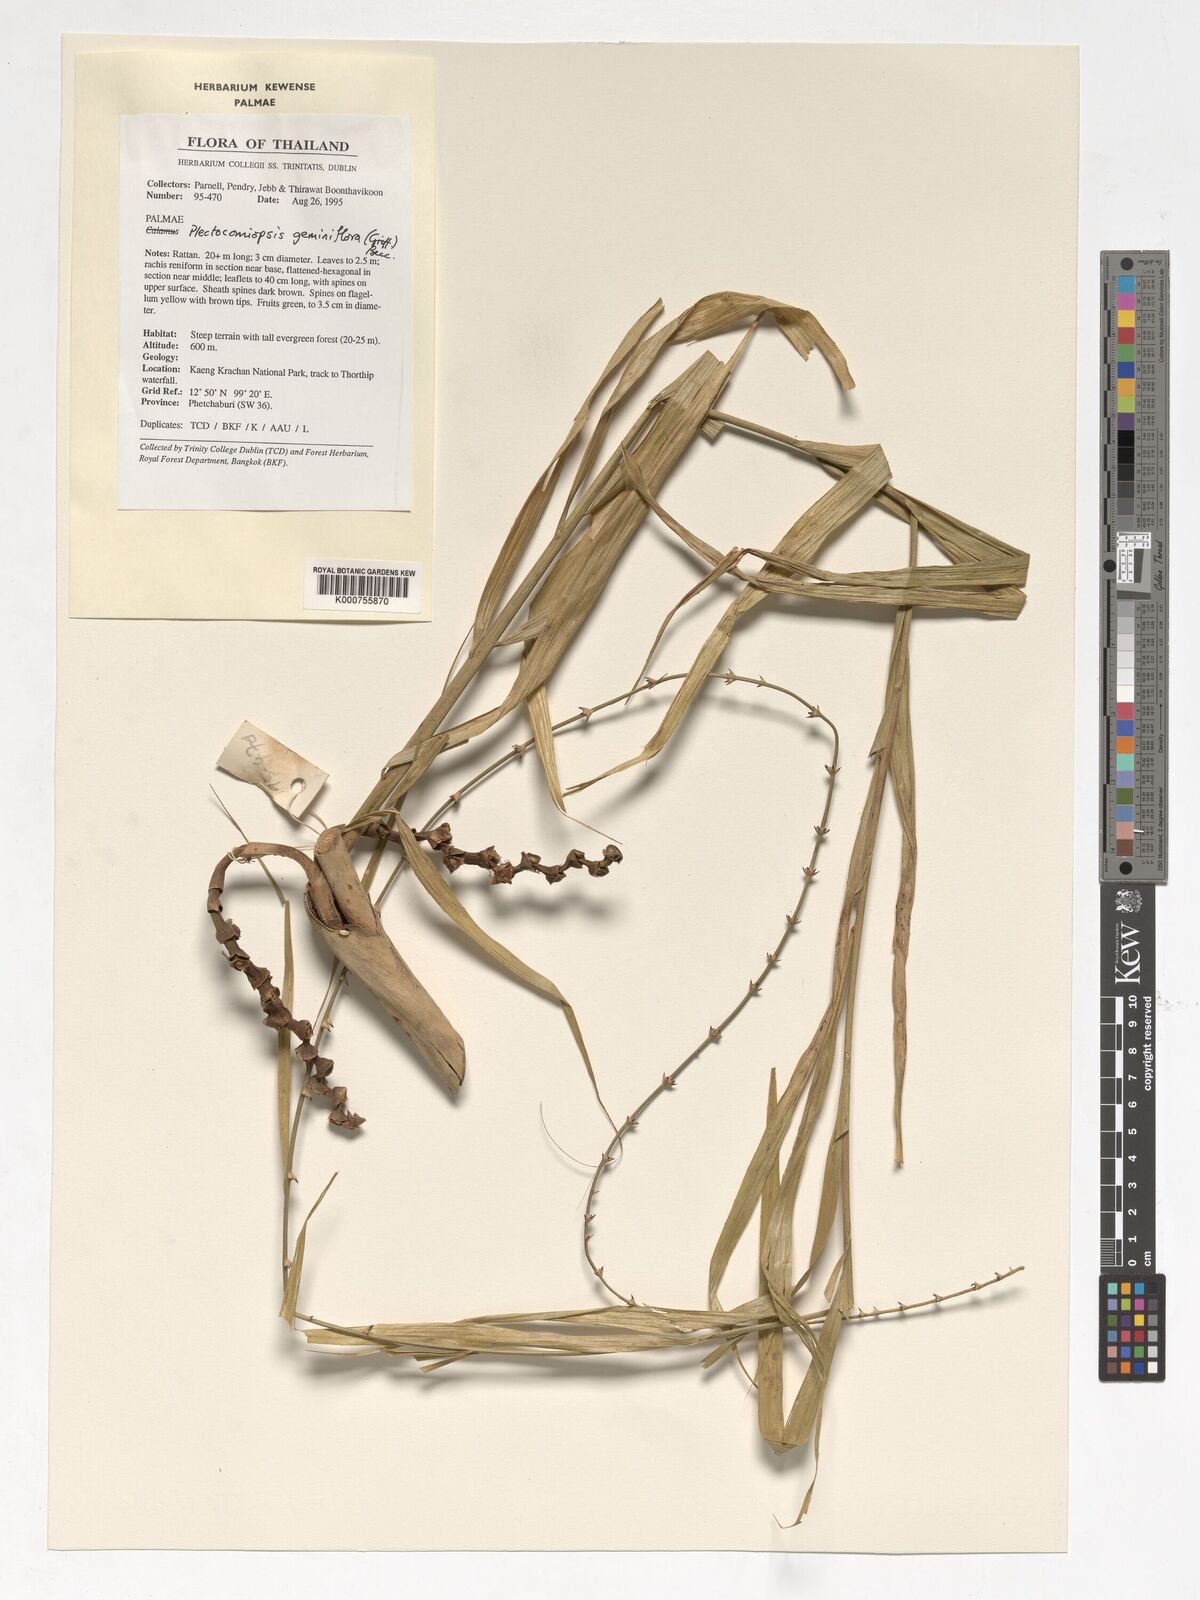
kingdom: Plantae
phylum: Tracheophyta
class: Liliopsida
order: Arecales
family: Arecaceae
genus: Plectocomiopsis
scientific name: Plectocomiopsis geminiflora
